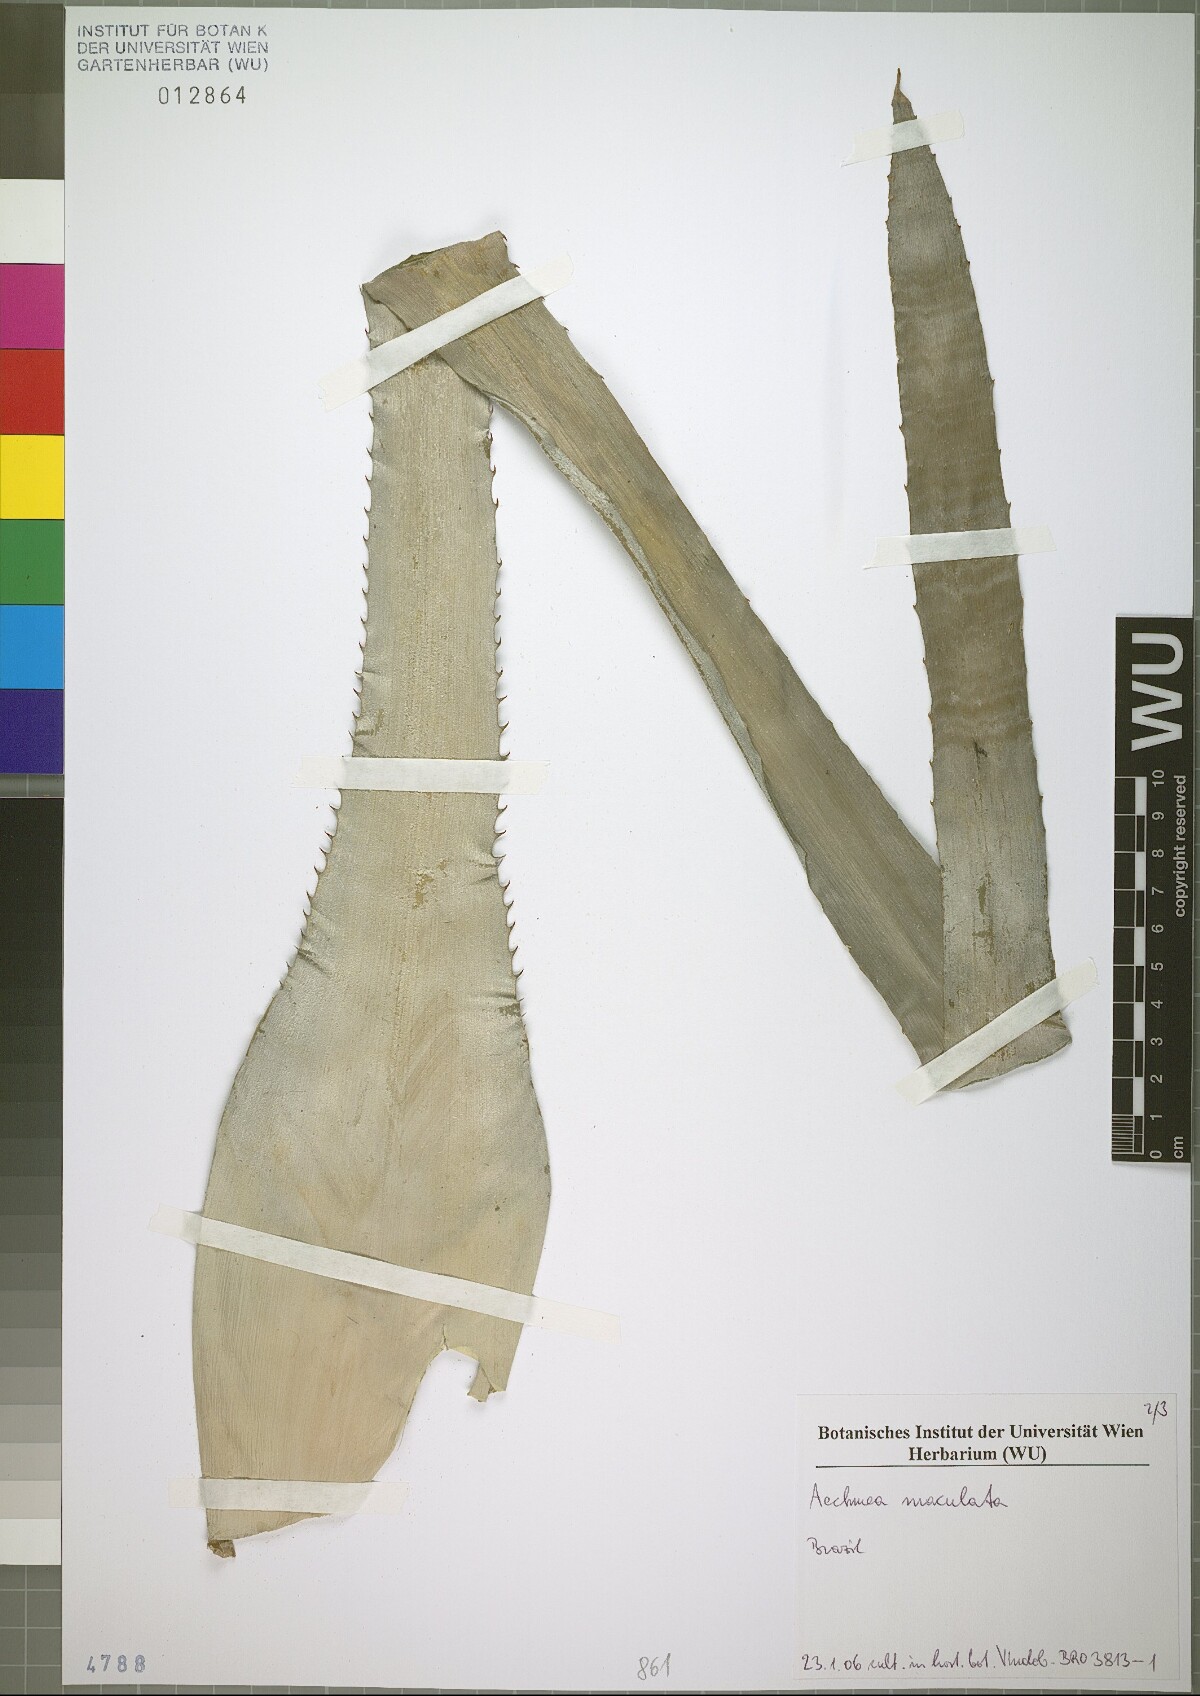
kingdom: Plantae
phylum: Tracheophyta
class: Liliopsida
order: Poales
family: Bromeliaceae
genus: Aechmea
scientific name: Aechmea maculata
